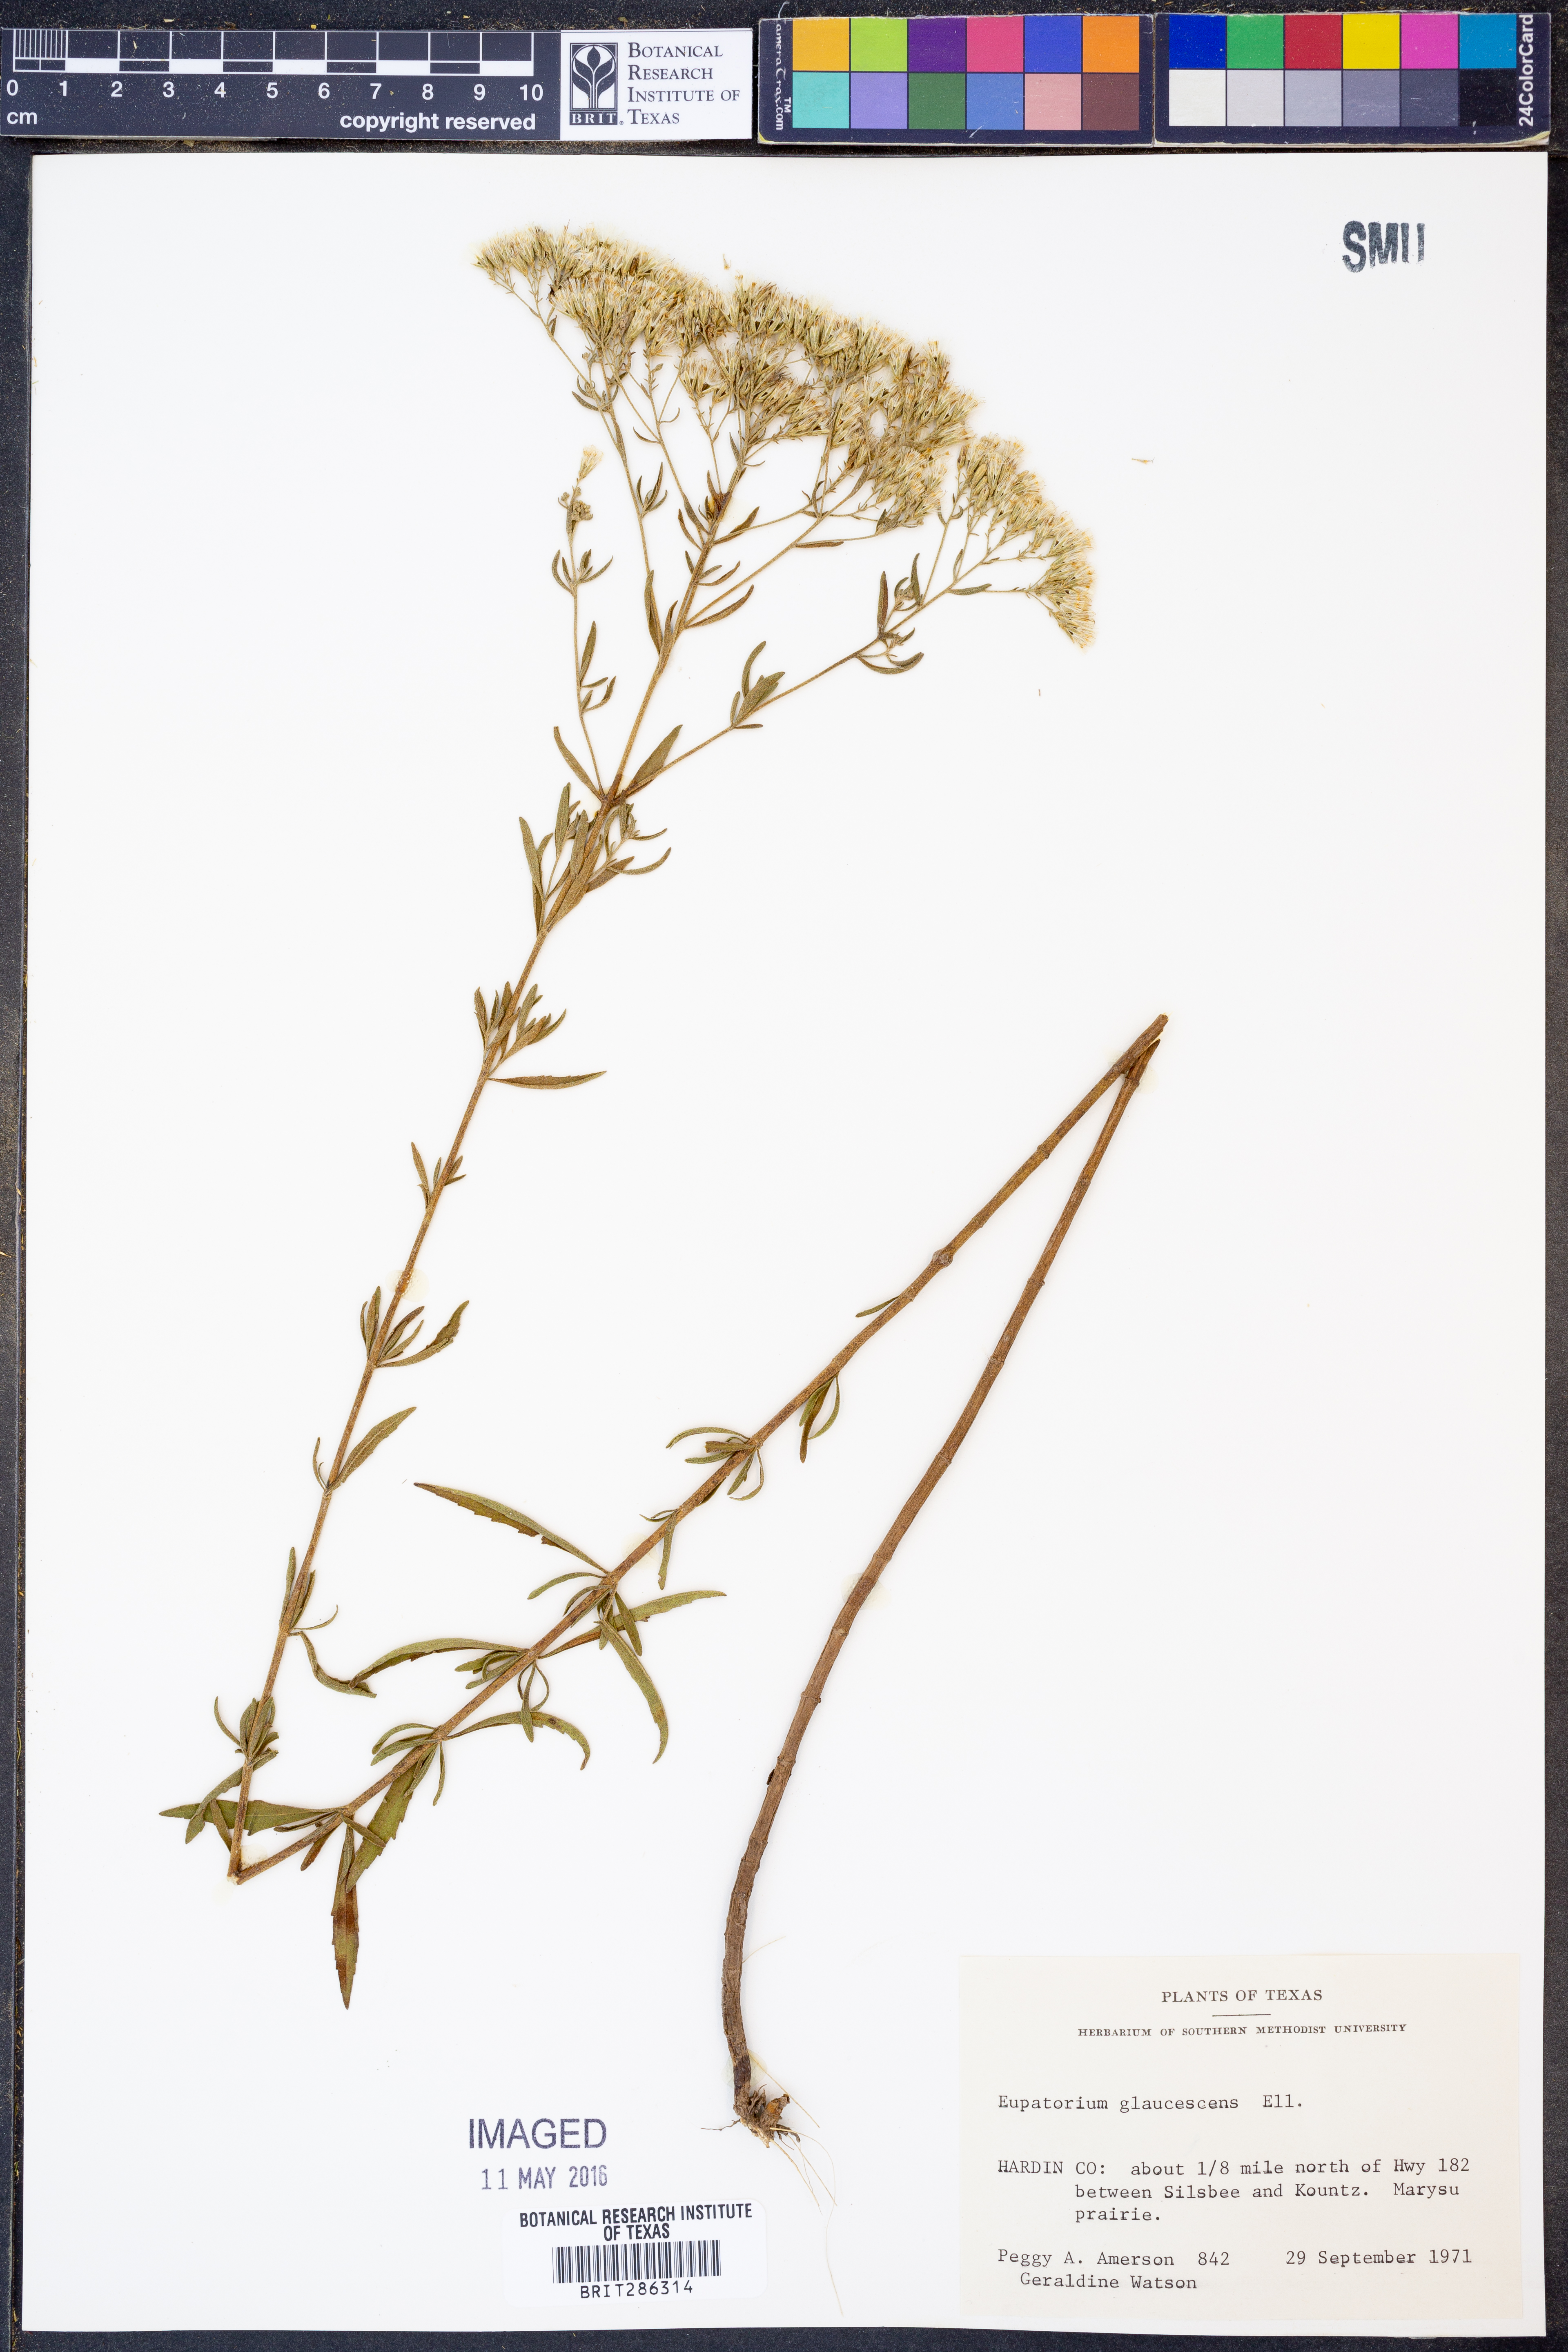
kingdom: Plantae
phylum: Tracheophyta
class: Magnoliopsida
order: Asterales
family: Asteraceae
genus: Eupatorium
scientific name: Eupatorium linearifolium
